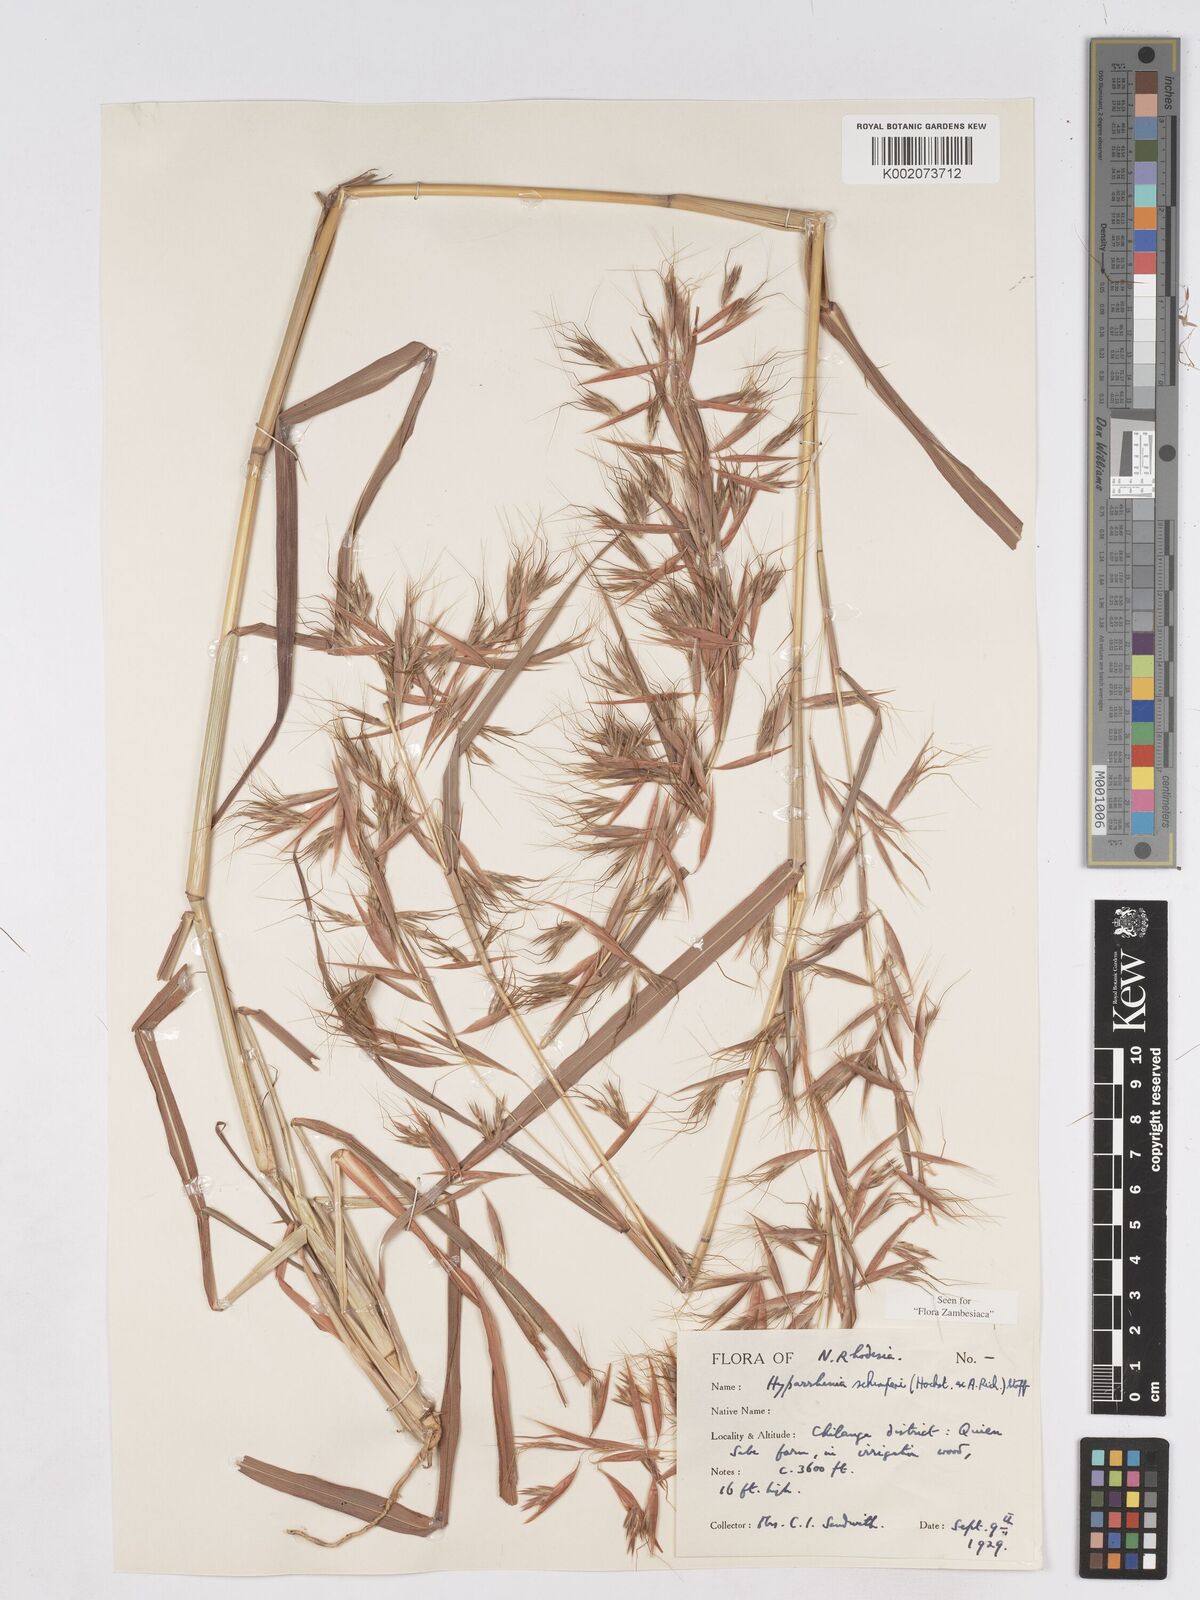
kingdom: Plantae
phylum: Tracheophyta
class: Liliopsida
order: Poales
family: Poaceae
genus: Hyparrhenia
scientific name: Hyparrhenia schimperi
